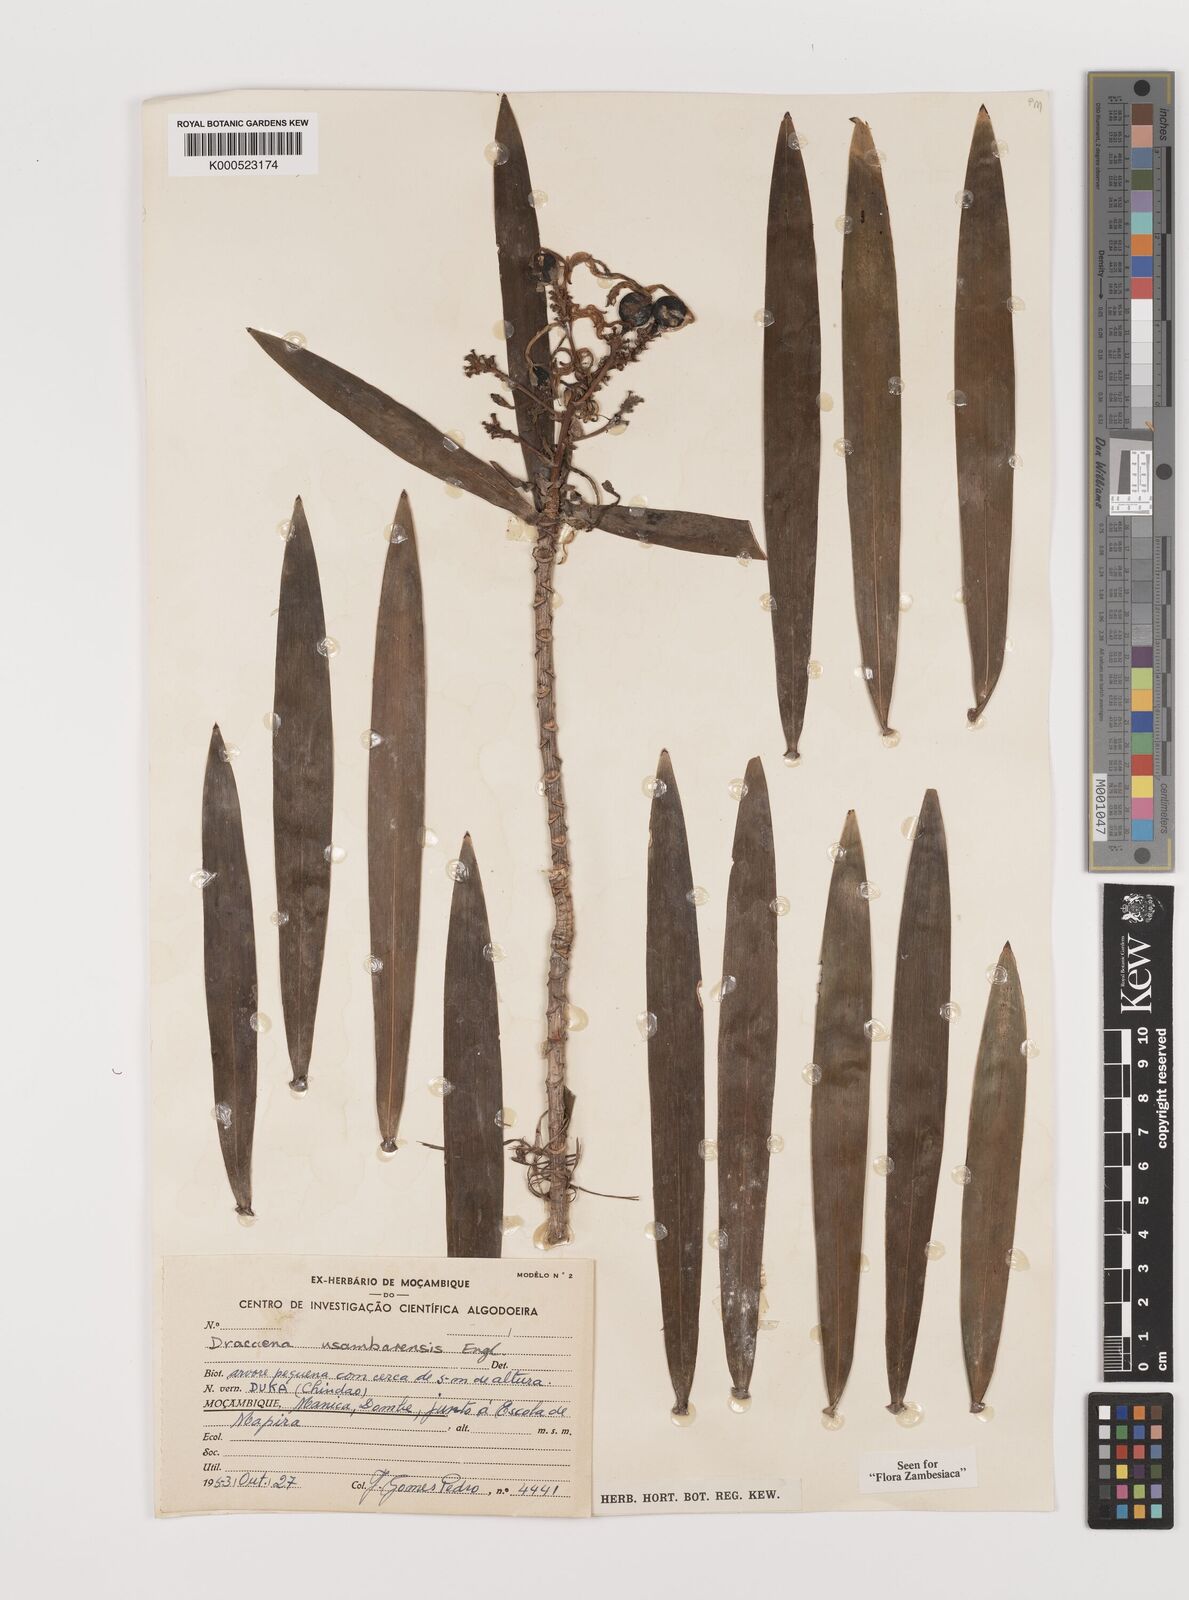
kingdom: Plantae
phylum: Tracheophyta
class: Liliopsida
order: Asparagales
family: Asparagaceae
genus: Dracaena
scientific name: Dracaena usambarensis
